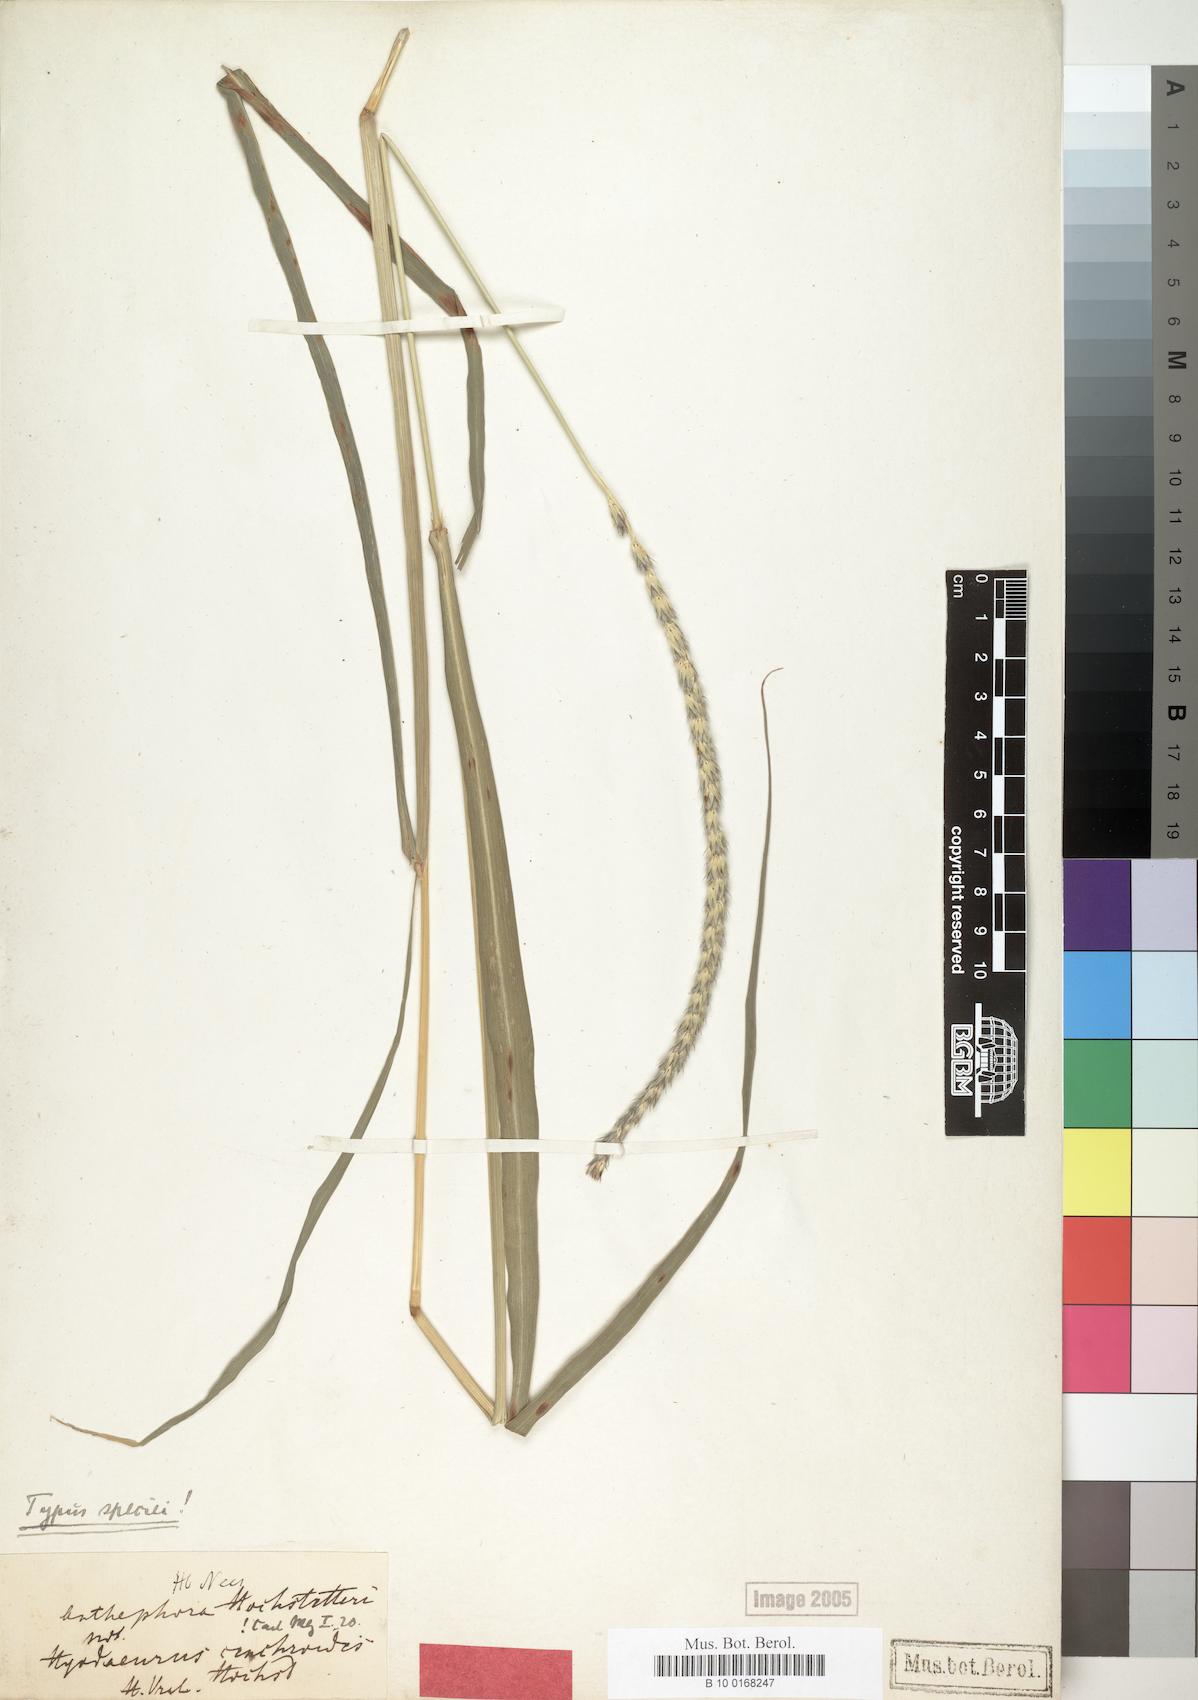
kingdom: Plantae
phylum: Tracheophyta
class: Liliopsida
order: Poales
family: Poaceae
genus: Anthephora
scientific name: Anthephora pubescens
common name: Wool grass
